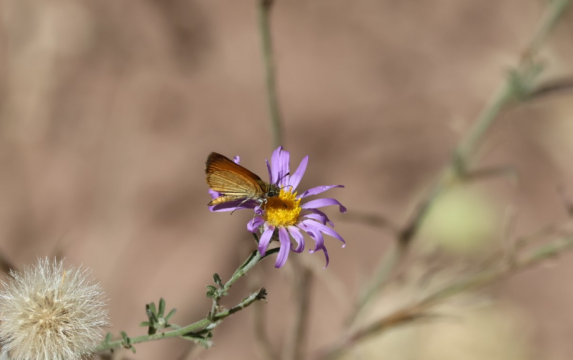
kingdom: Animalia
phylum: Arthropoda
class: Insecta
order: Lepidoptera
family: Hesperiidae
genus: Ancyloxypha
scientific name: Ancyloxypha arene
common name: Tropical Least Skipper
